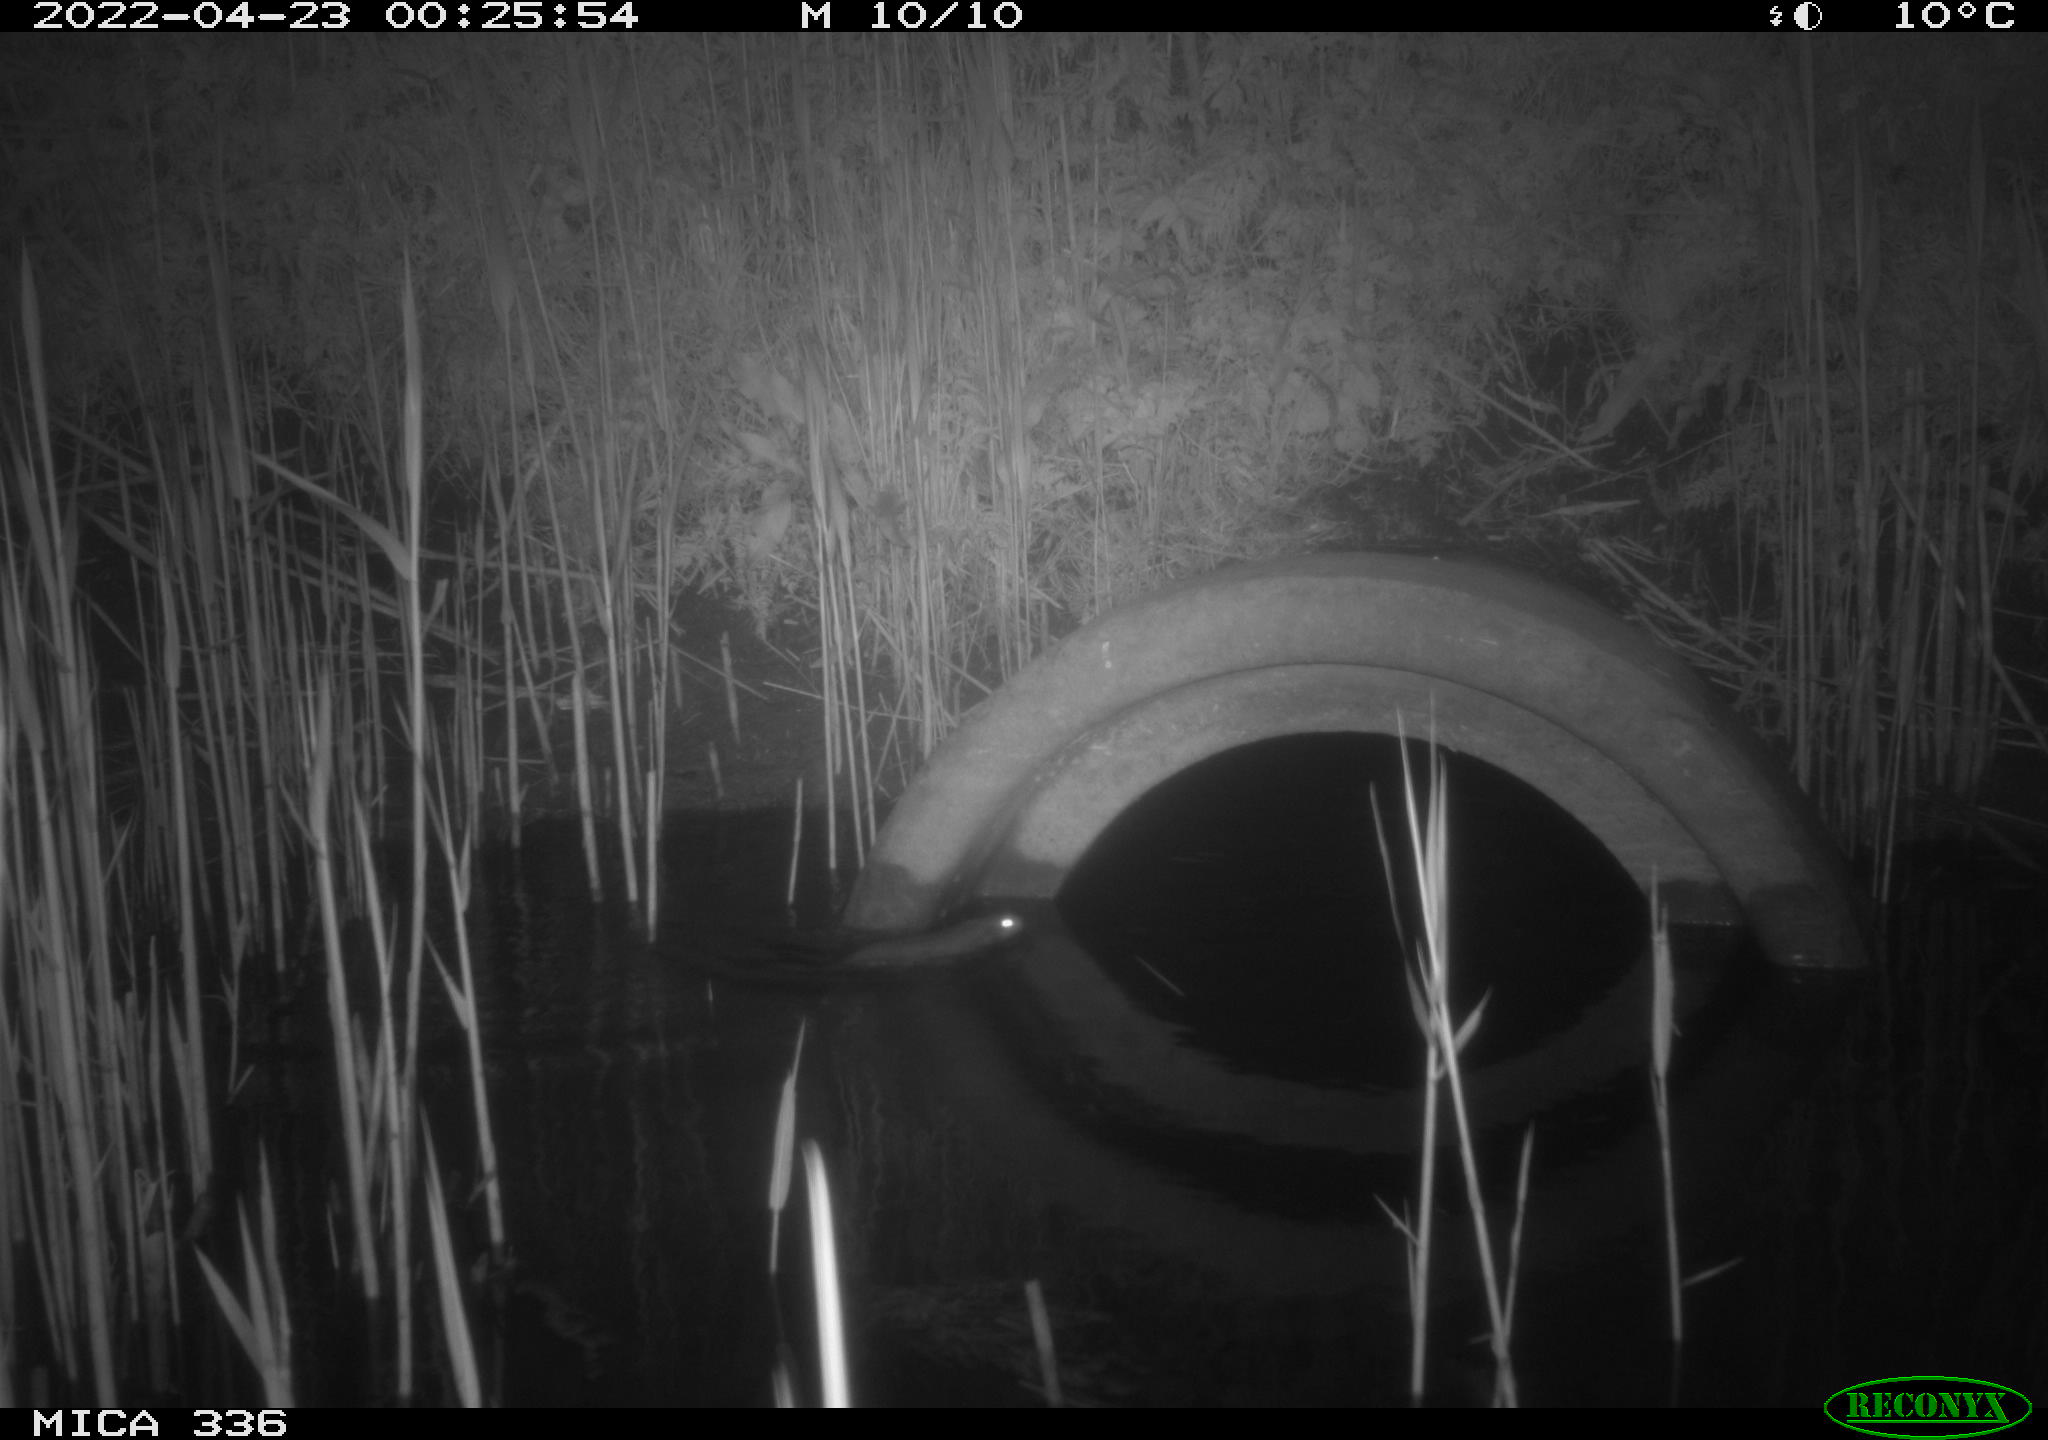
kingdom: Animalia
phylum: Chordata
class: Mammalia
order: Rodentia
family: Muridae
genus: Rattus
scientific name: Rattus norvegicus
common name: Brown rat
